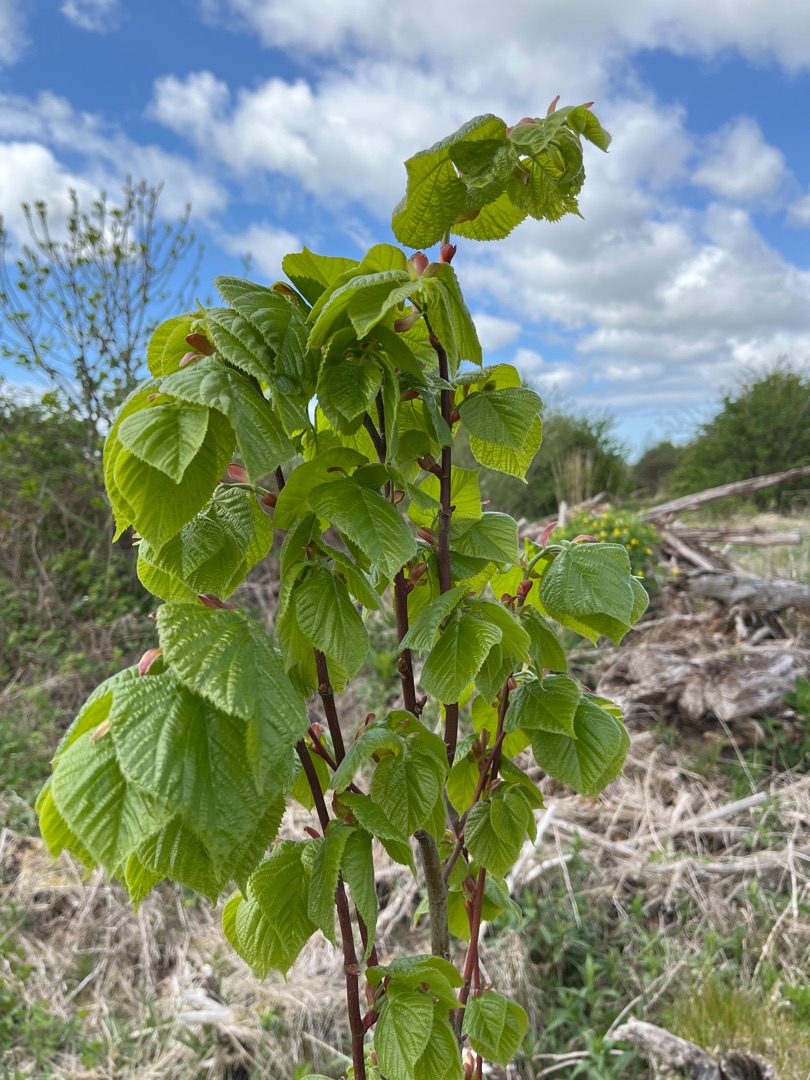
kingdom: Plantae
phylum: Tracheophyta
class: Magnoliopsida
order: Malvales
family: Malvaceae
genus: Tilia
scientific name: Tilia
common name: Lindeslægten
